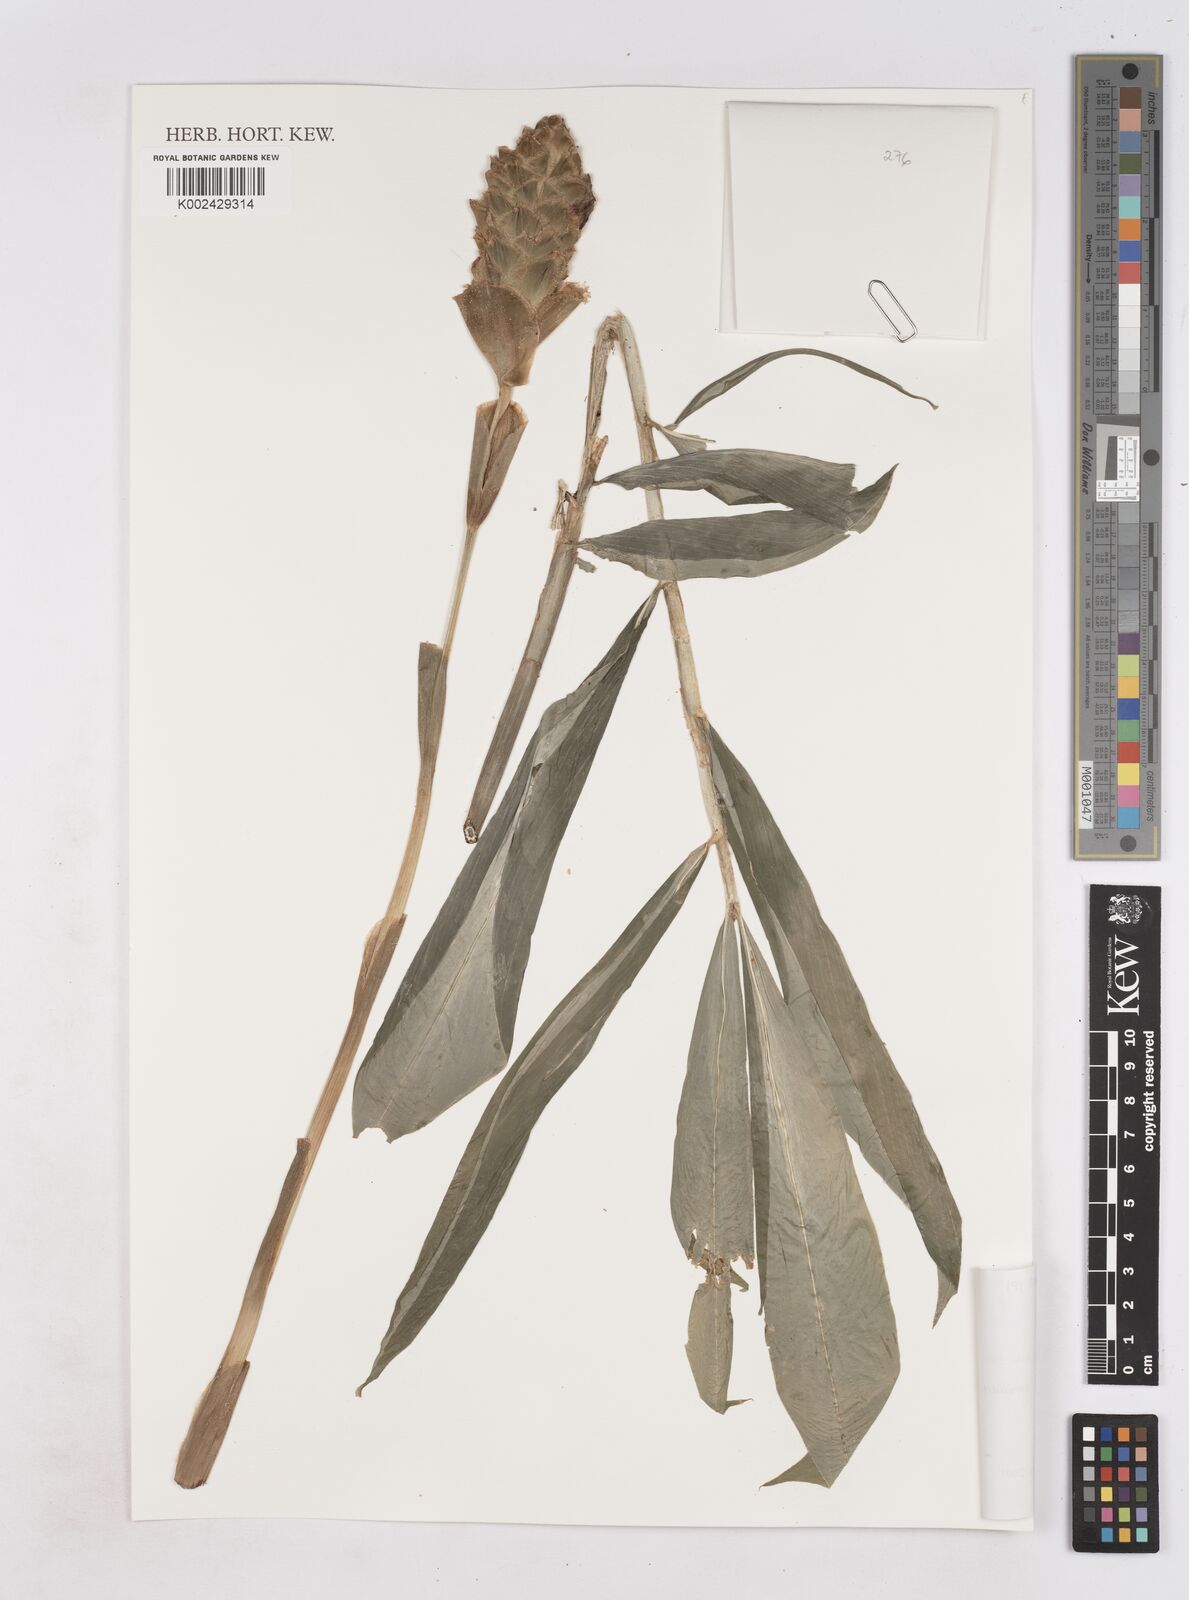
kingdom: Plantae
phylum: Tracheophyta
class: Liliopsida
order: Zingiberales
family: Zingiberaceae
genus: Zingiber
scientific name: Zingiber zerumbet
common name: Bitter ginger
